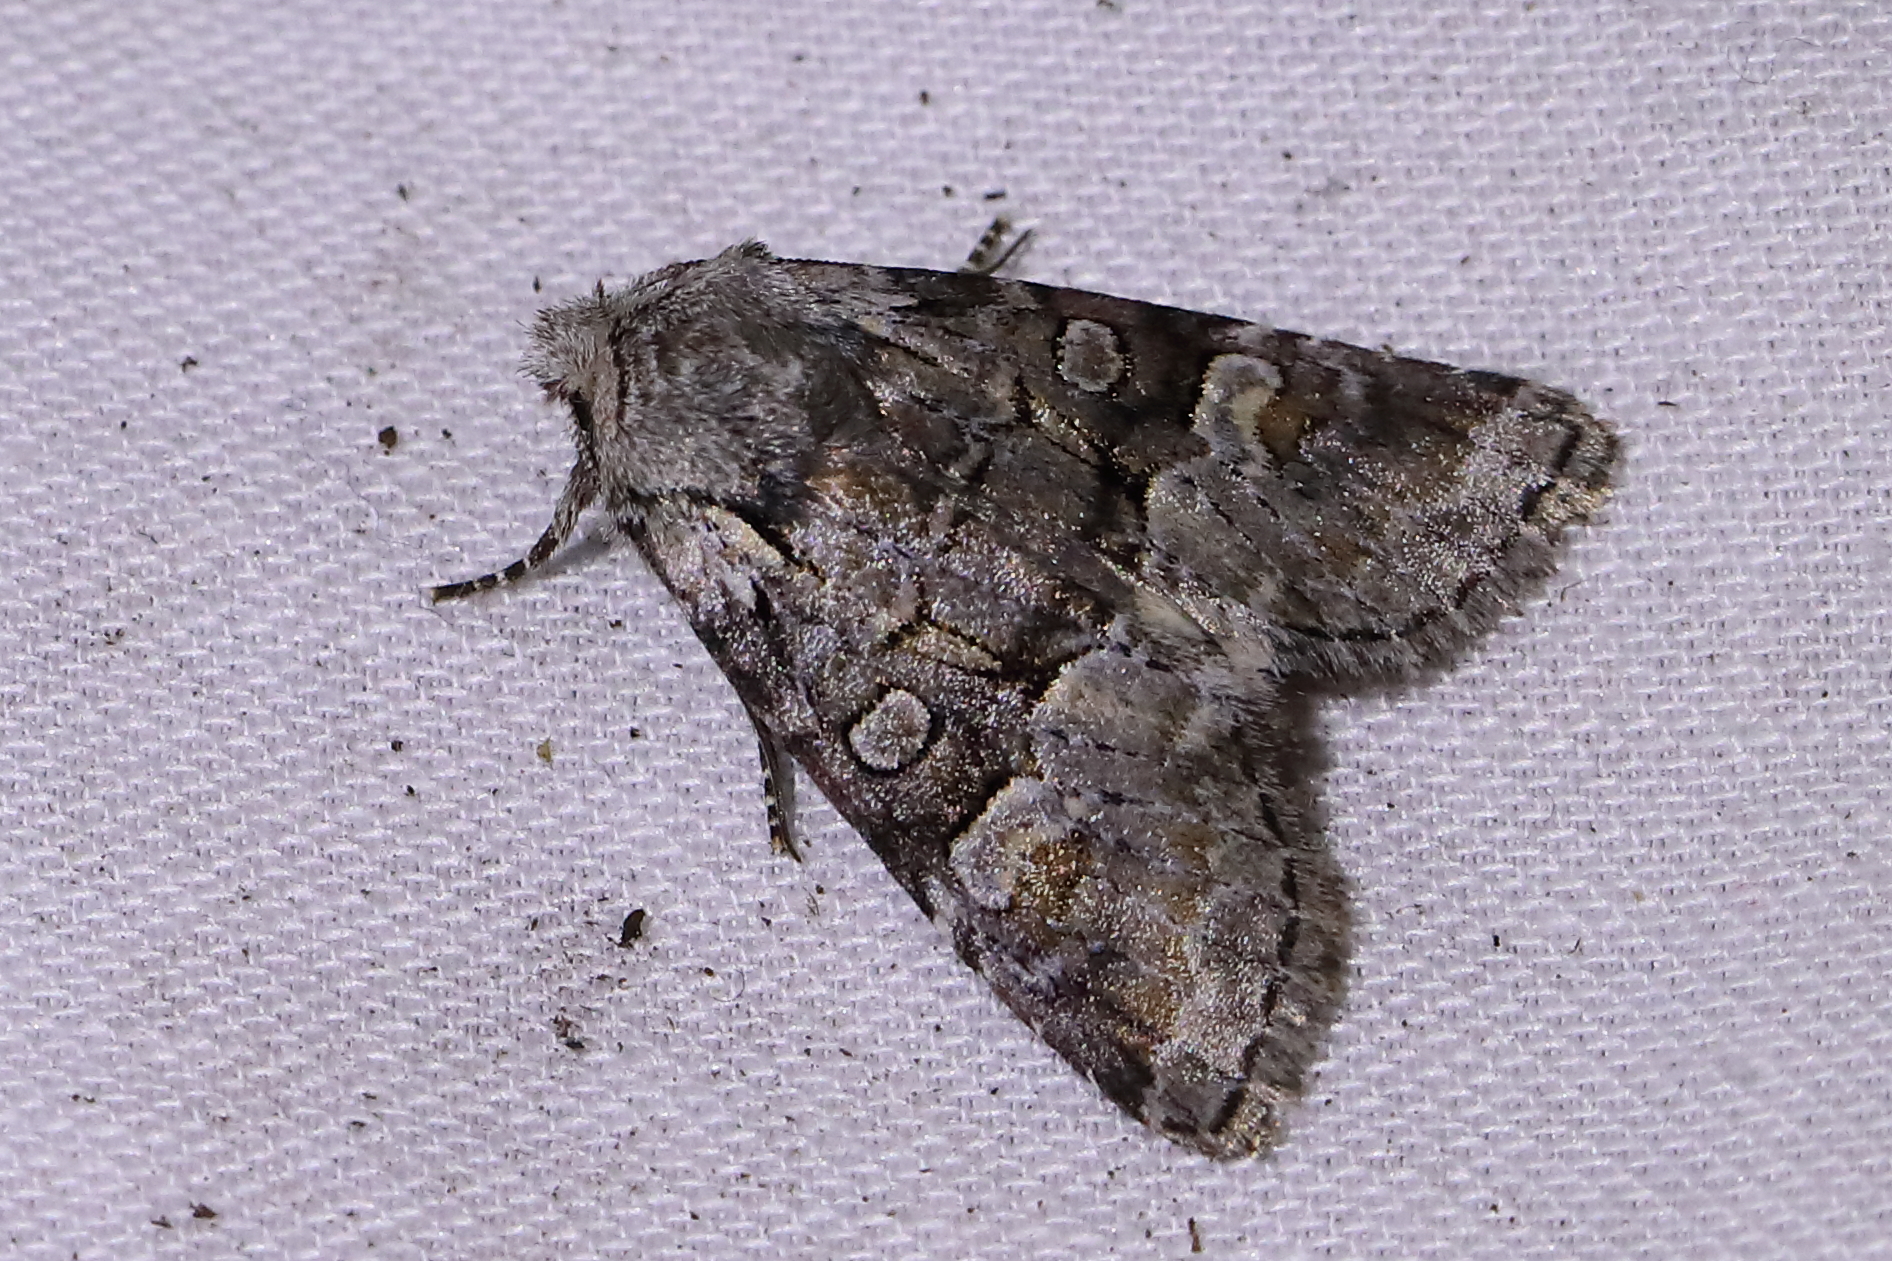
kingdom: Animalia
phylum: Arthropoda
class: Insecta
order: Lepidoptera
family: Noctuidae
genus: Brachylomia
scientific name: Brachylomia viminalis
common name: Minor shoulder-knot
